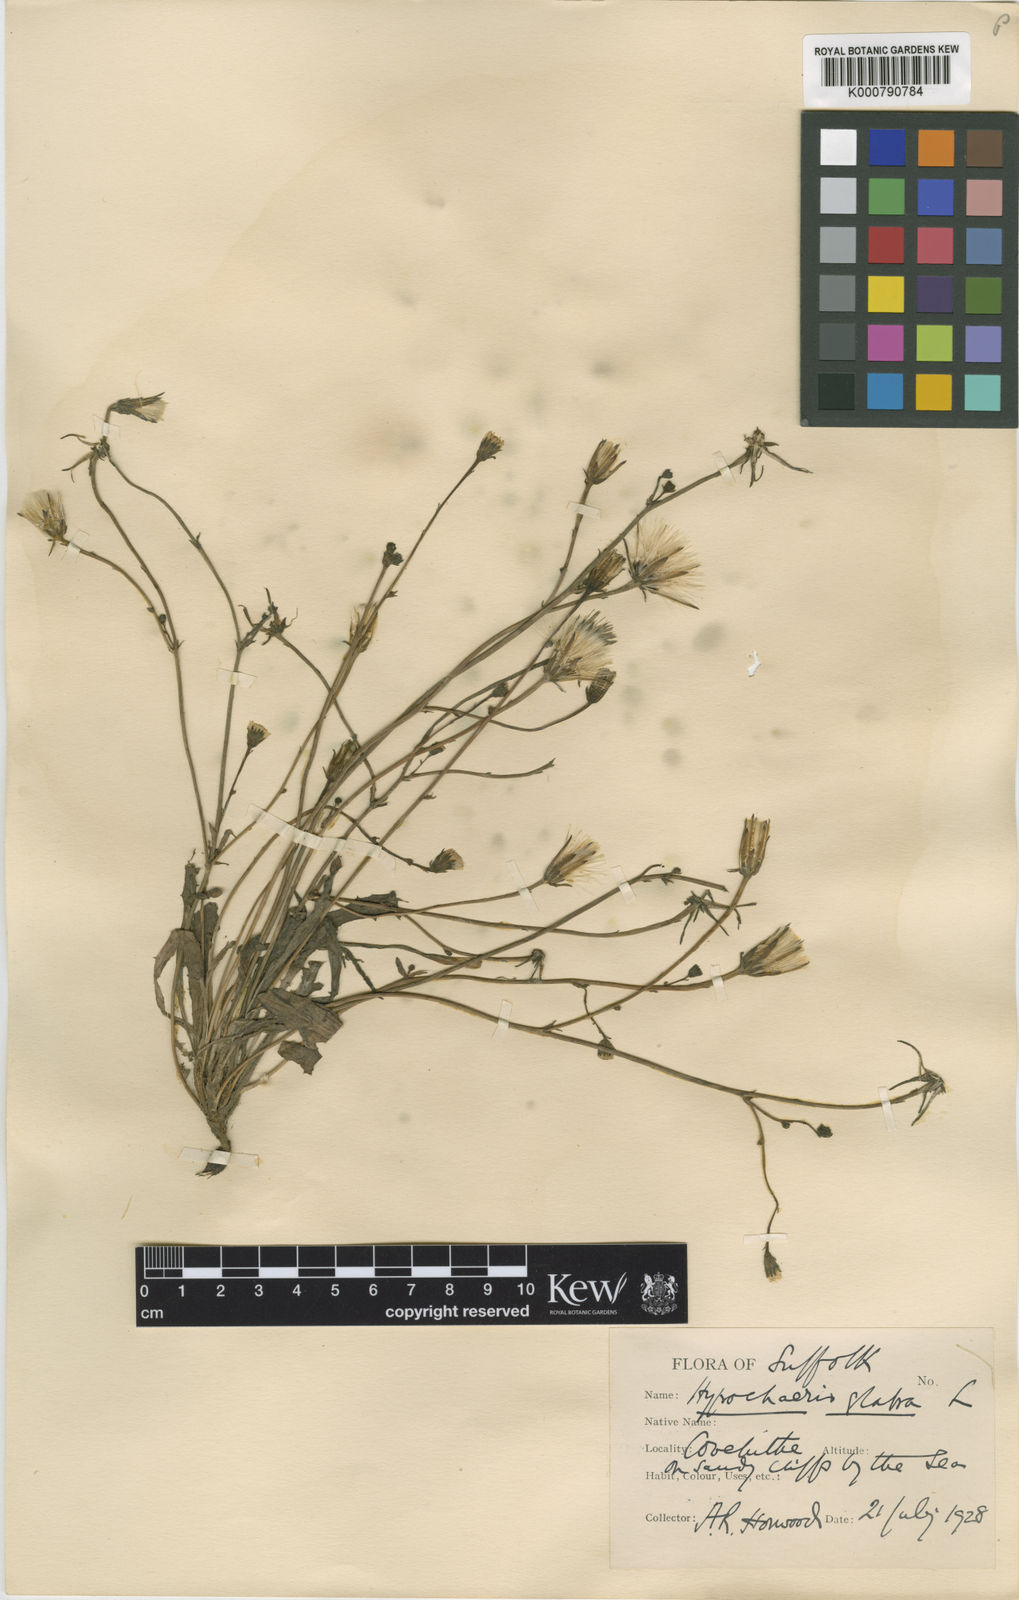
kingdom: Plantae
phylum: Tracheophyta
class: Magnoliopsida
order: Asterales
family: Asteraceae
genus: Hypochaeris
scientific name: Hypochaeris glabra
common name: Smooth catsear
